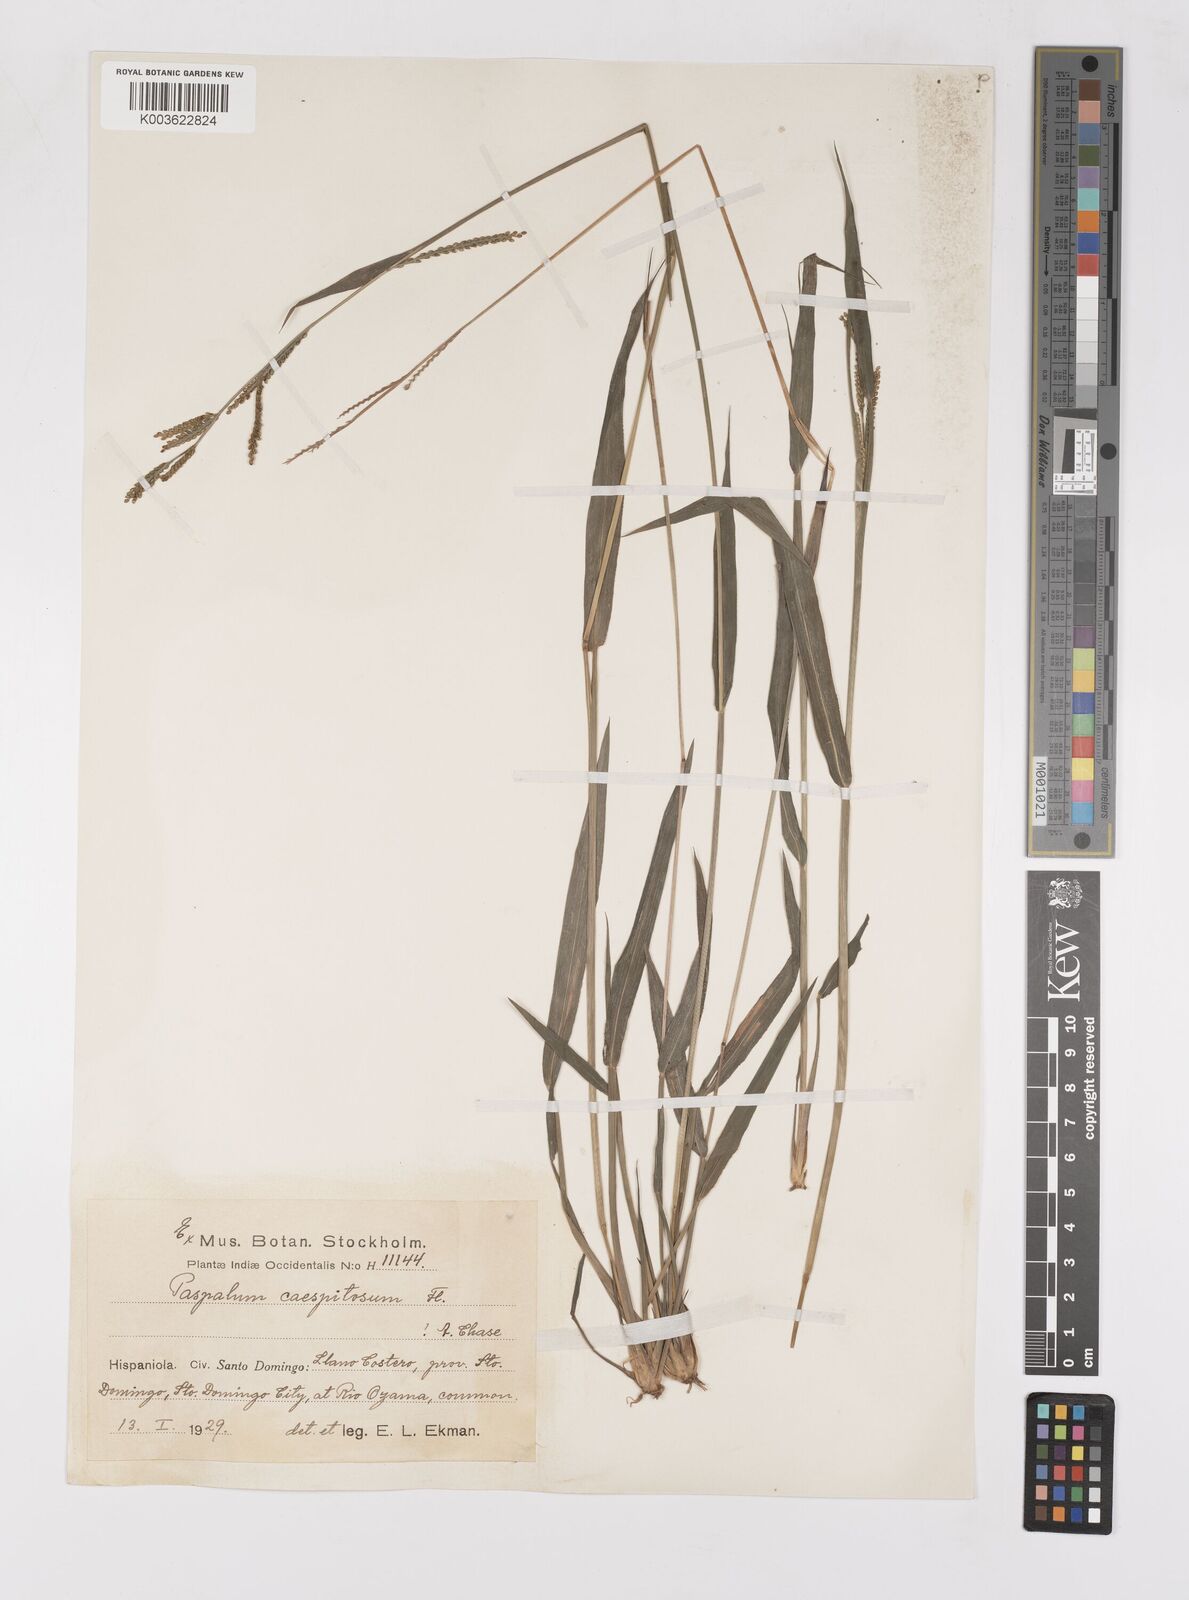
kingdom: Plantae
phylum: Tracheophyta
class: Liliopsida
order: Poales
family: Poaceae
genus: Paspalum
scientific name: Paspalum caespitosum
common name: Blue crowngrass
